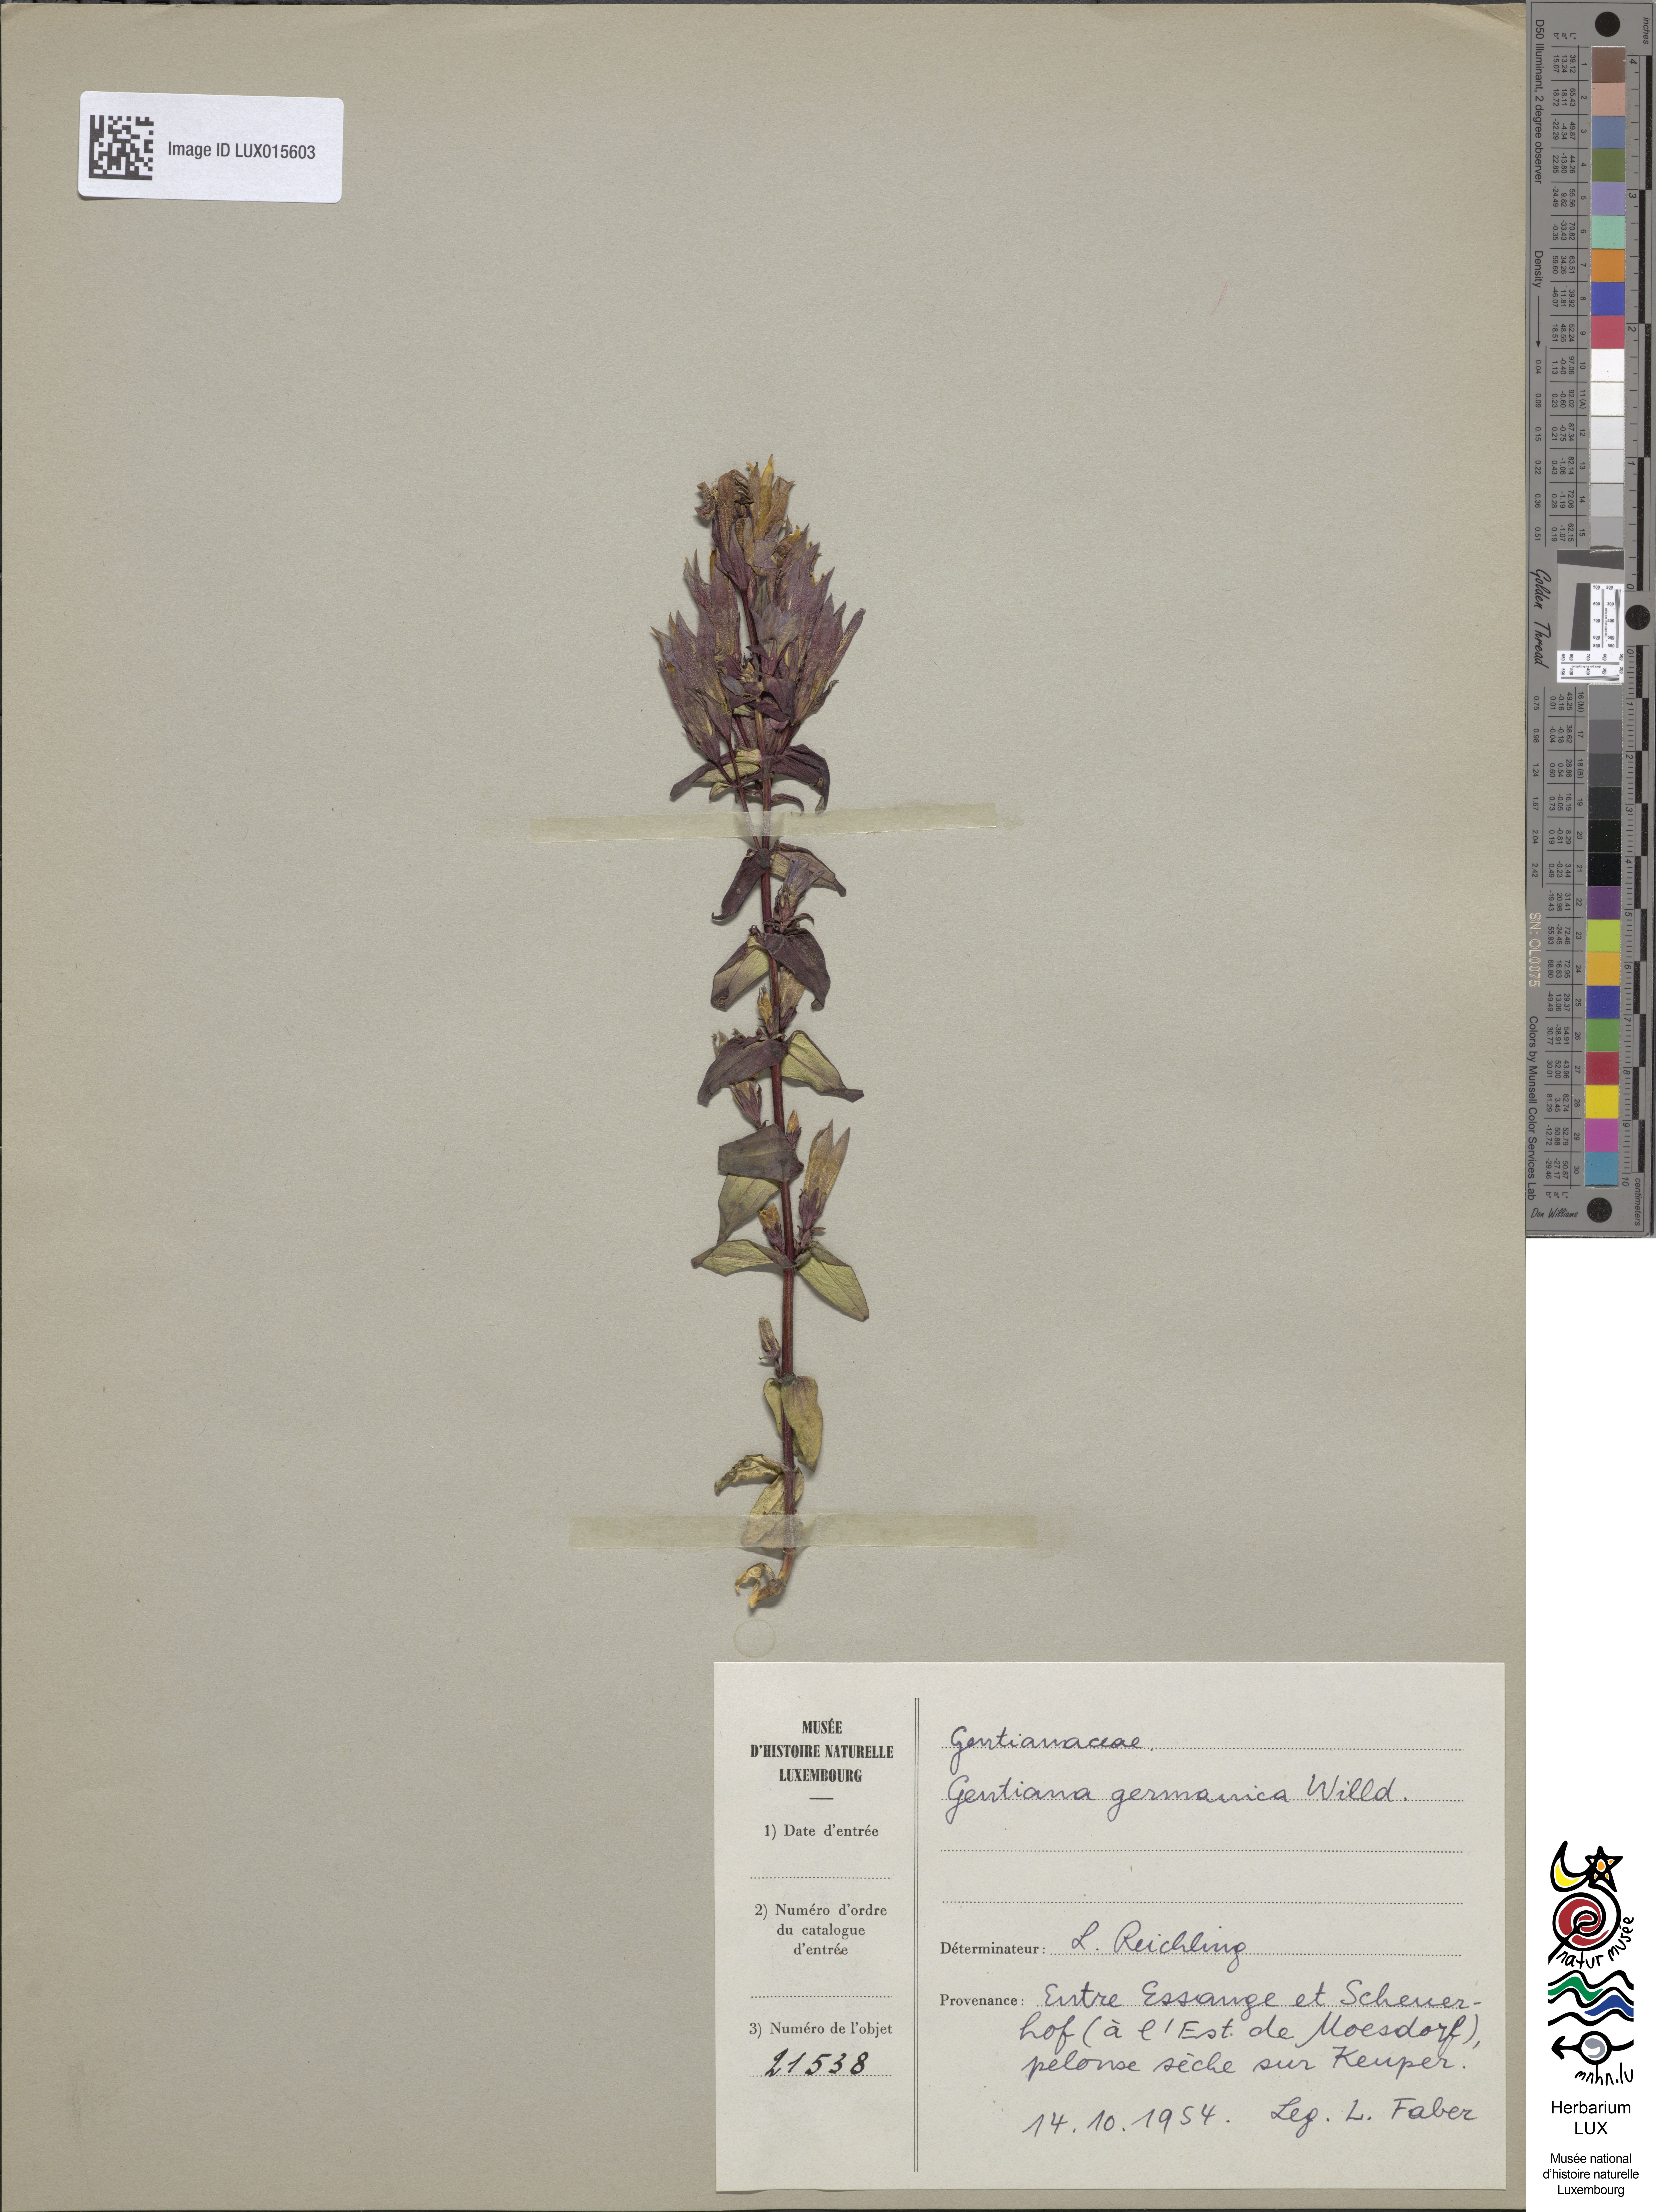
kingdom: Plantae
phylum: Tracheophyta
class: Magnoliopsida
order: Gentianales
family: Gentianaceae
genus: Gentianella
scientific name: Gentianella germanica
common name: Chiltern-gentian
